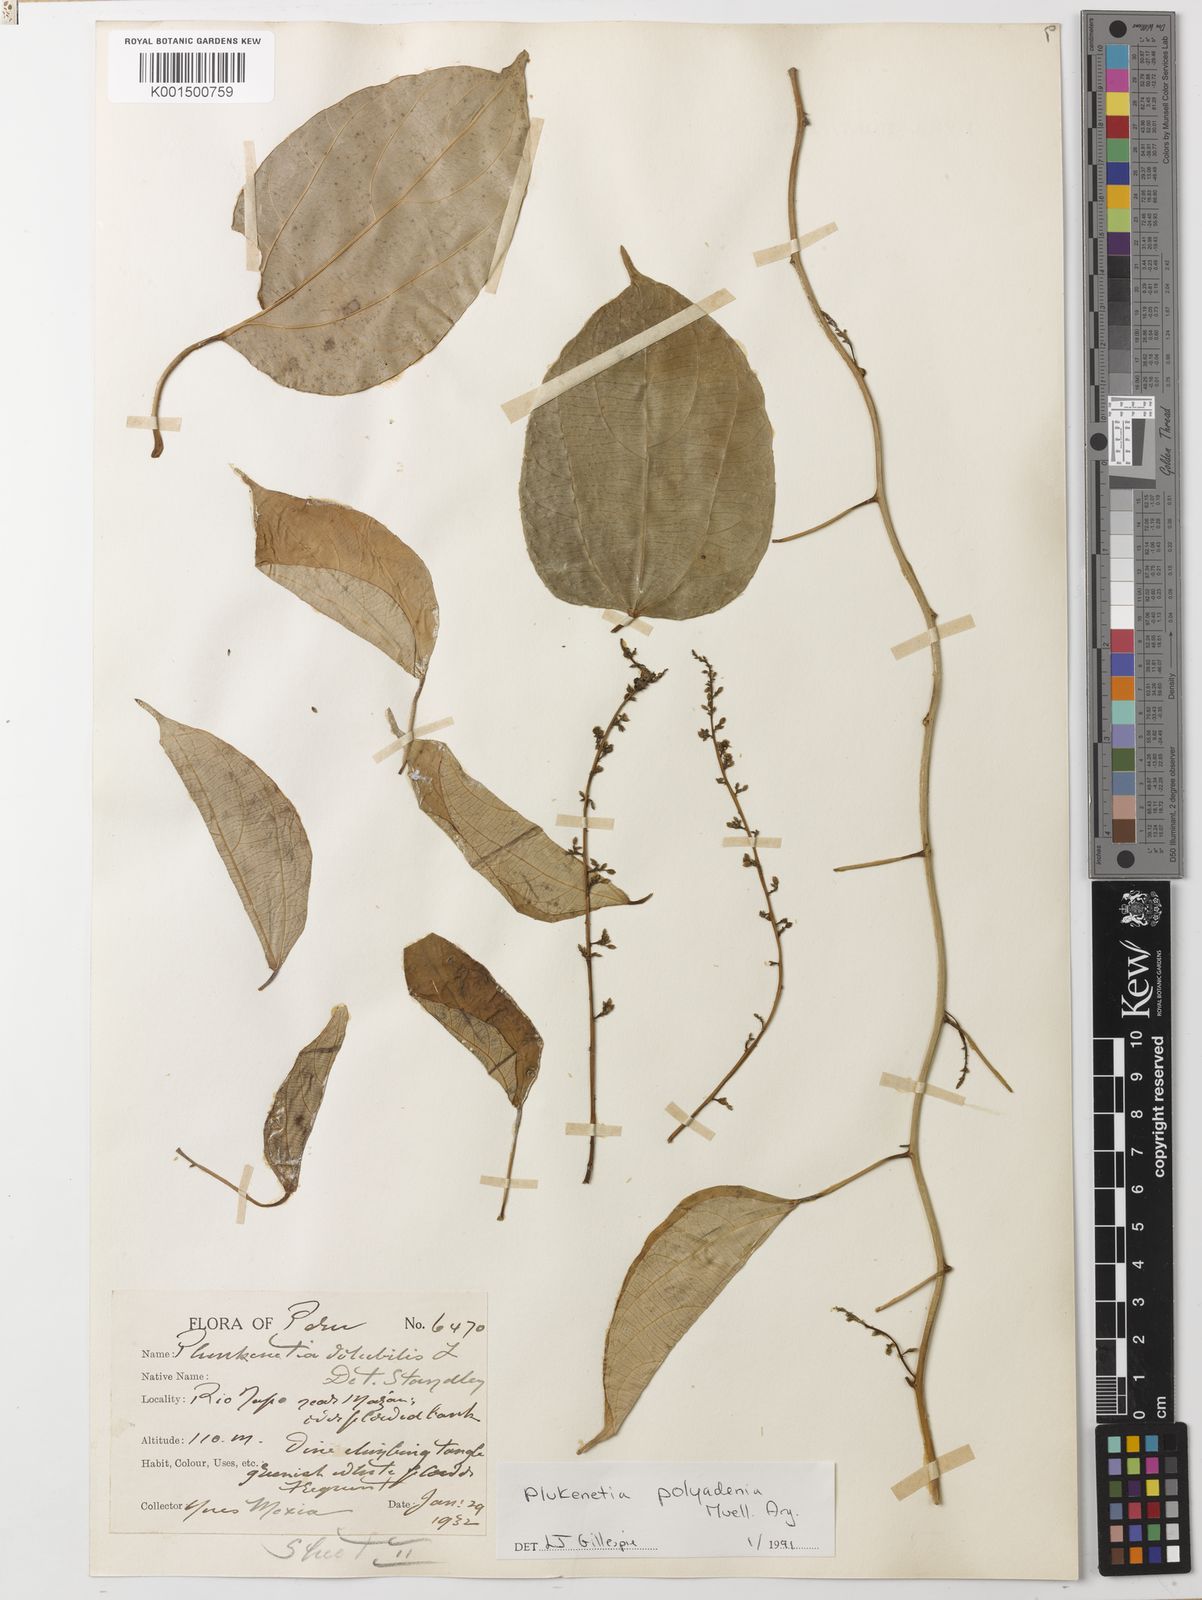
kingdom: Plantae
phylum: Tracheophyta
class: Magnoliopsida
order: Malpighiales
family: Euphorbiaceae
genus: Plukenetia
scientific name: Plukenetia polyadenia
